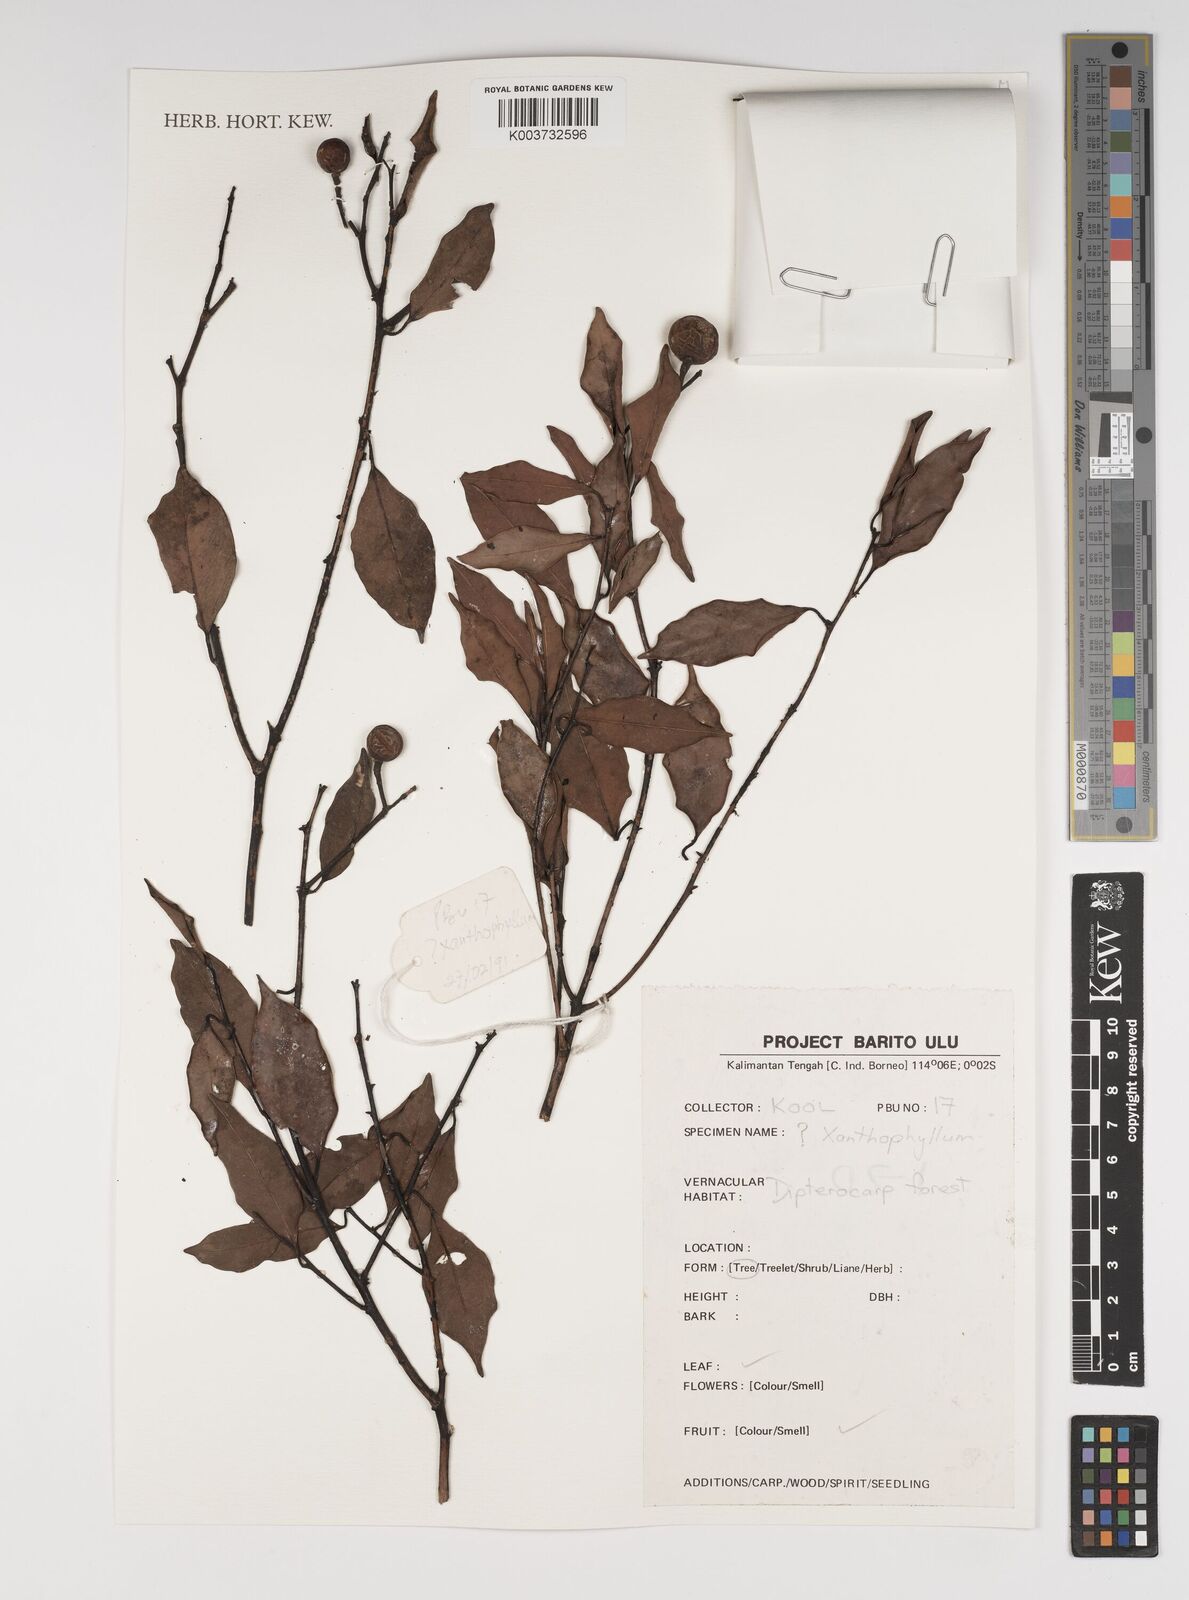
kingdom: Plantae
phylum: Tracheophyta
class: Magnoliopsida
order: Fabales
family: Polygalaceae
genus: Xanthophyllum
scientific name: Xanthophyllum
